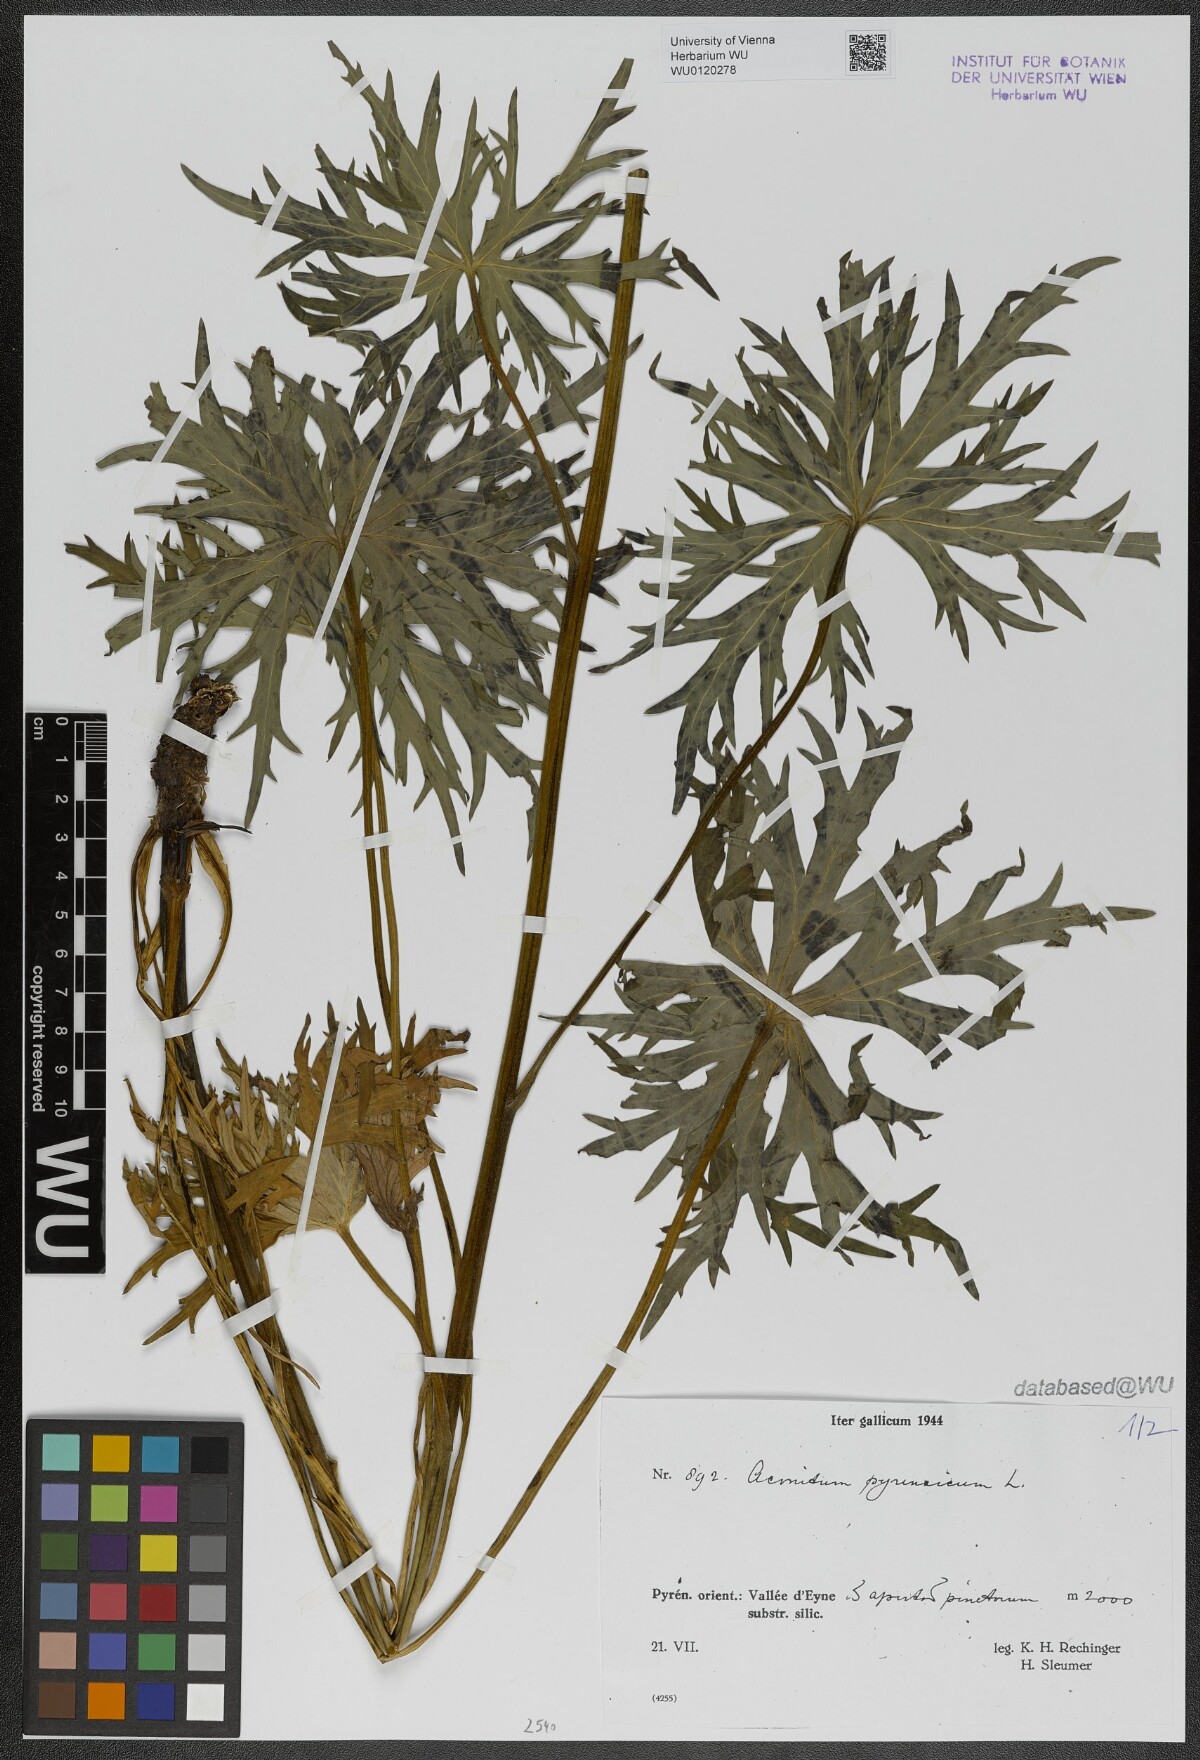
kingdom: Plantae
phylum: Tracheophyta
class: Magnoliopsida
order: Ranunculales
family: Ranunculaceae
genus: Aconitum
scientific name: Aconitum lycoctonum
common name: Wolf's-bane
